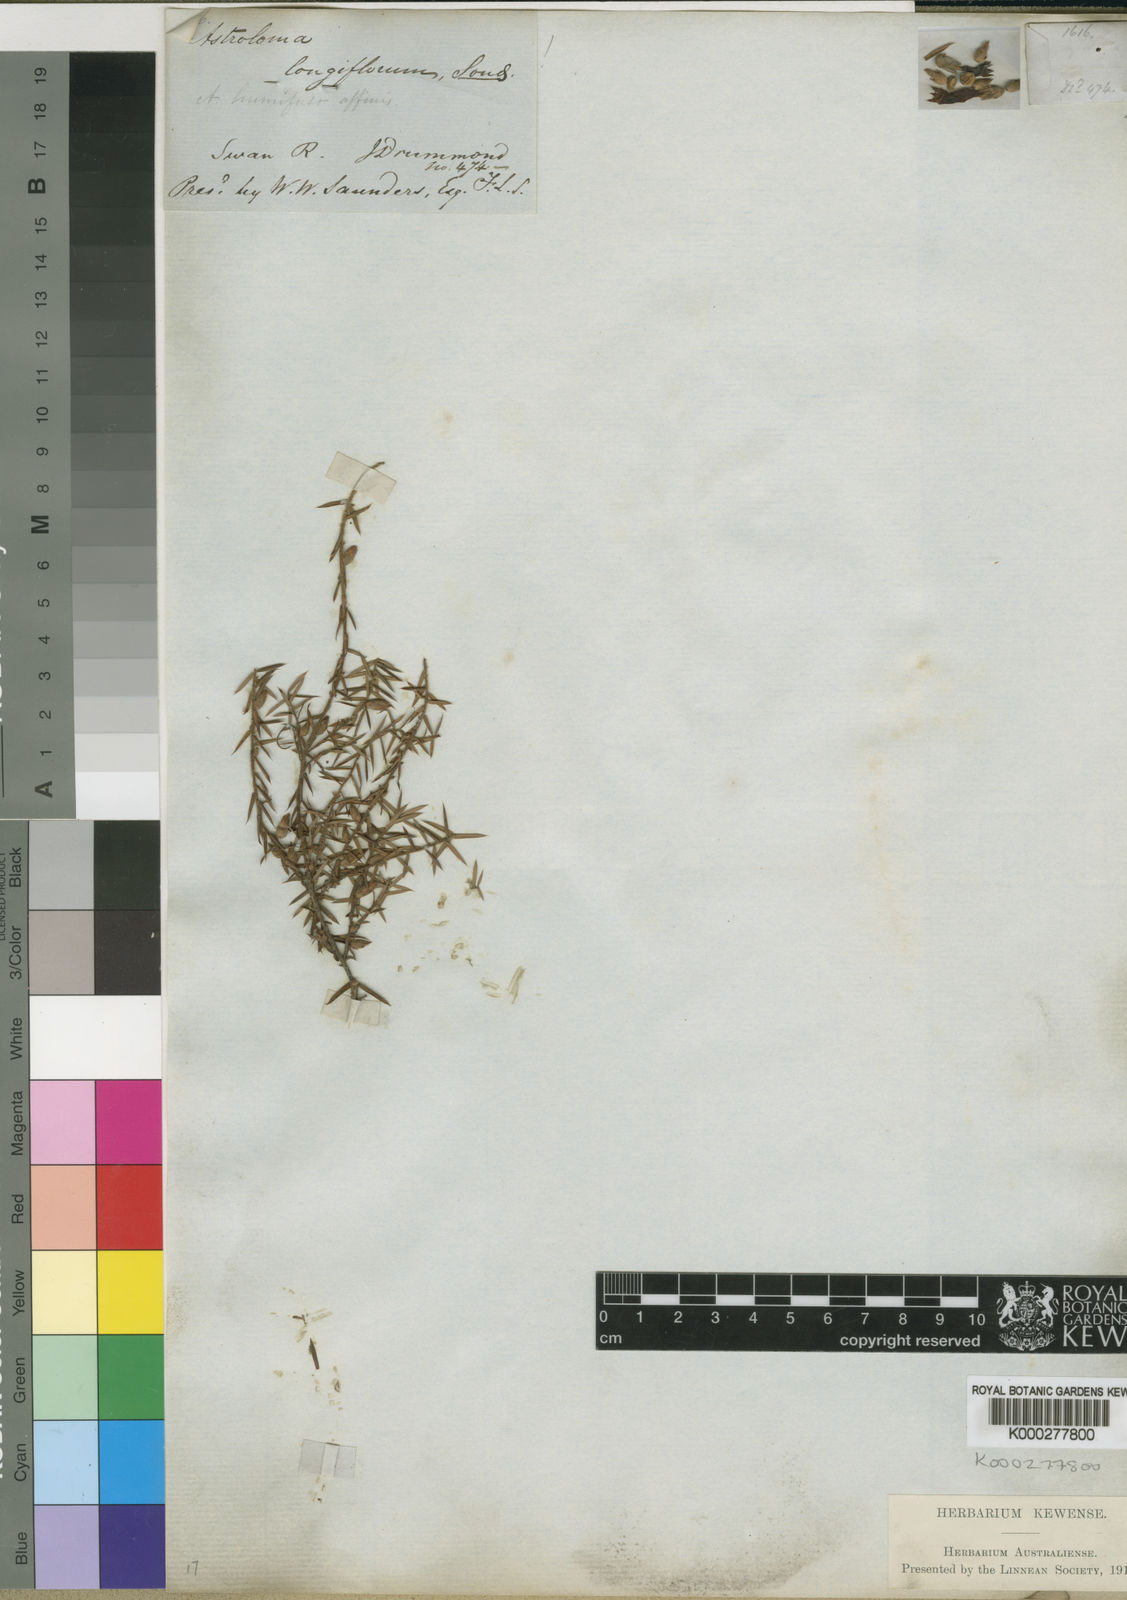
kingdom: Plantae
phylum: Tracheophyta
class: Magnoliopsida
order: Ericales
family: Ericaceae
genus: Styphelia
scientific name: Styphelia discolor
